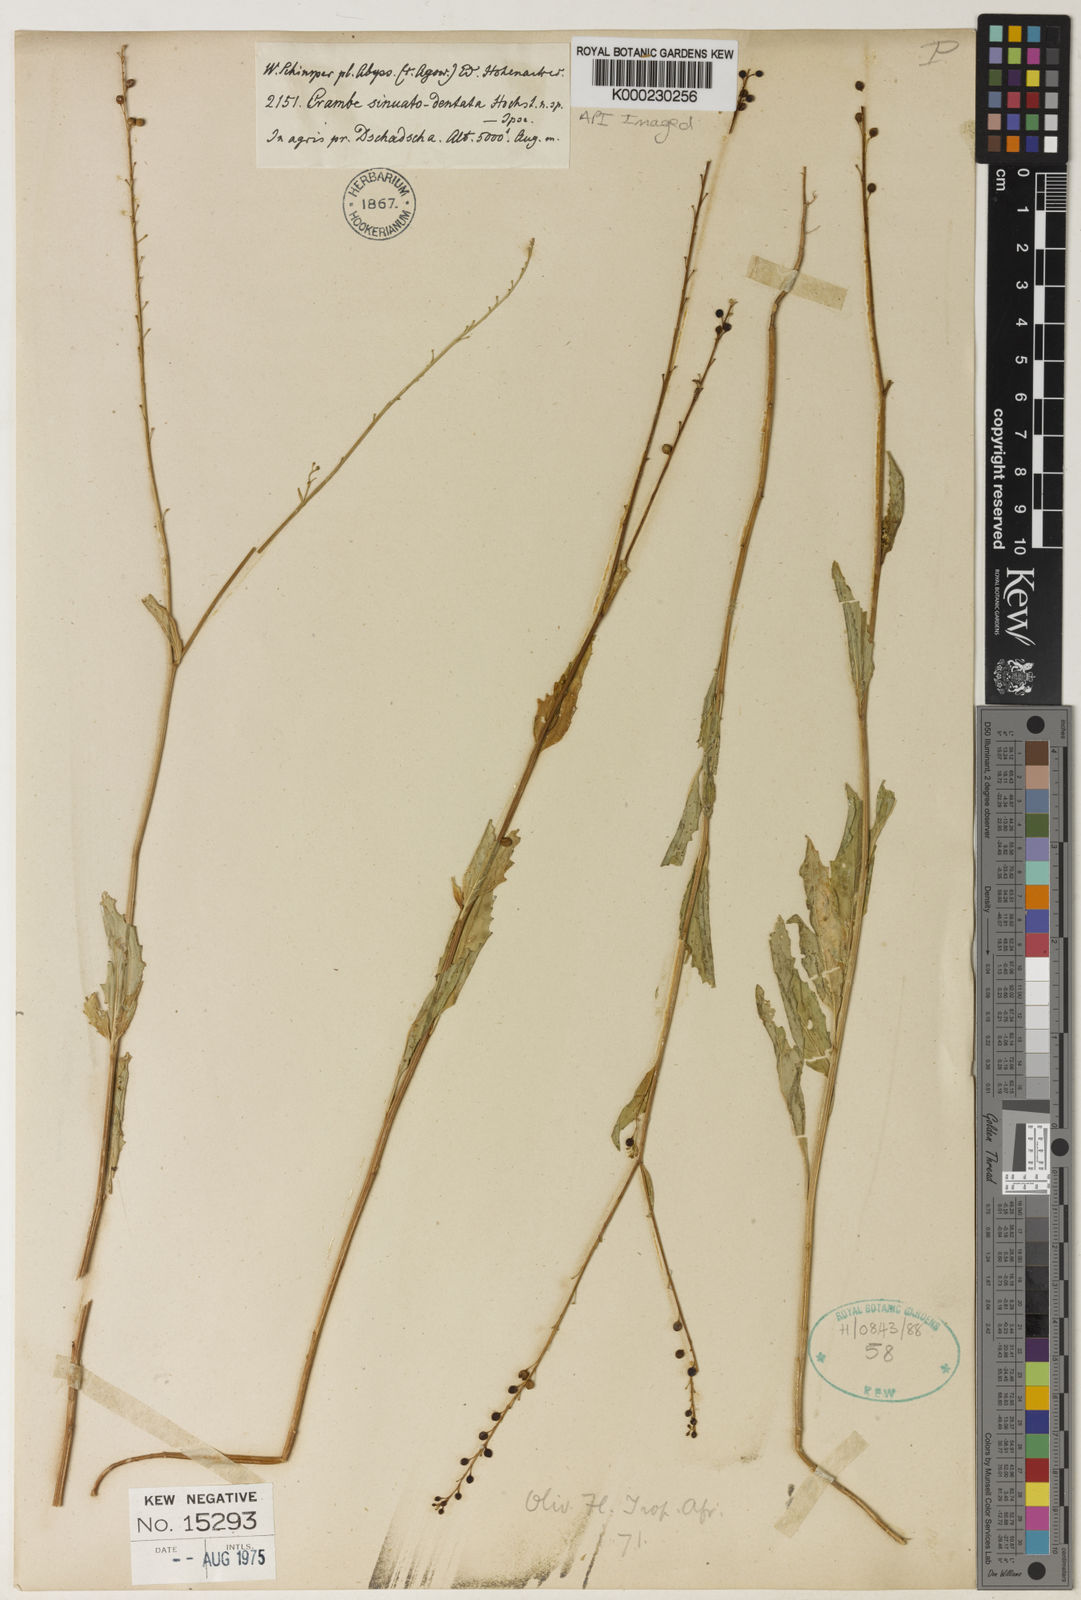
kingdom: Plantae
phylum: Tracheophyta
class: Magnoliopsida
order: Brassicales
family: Brassicaceae
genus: Crambe
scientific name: Crambe sinuatodentata
